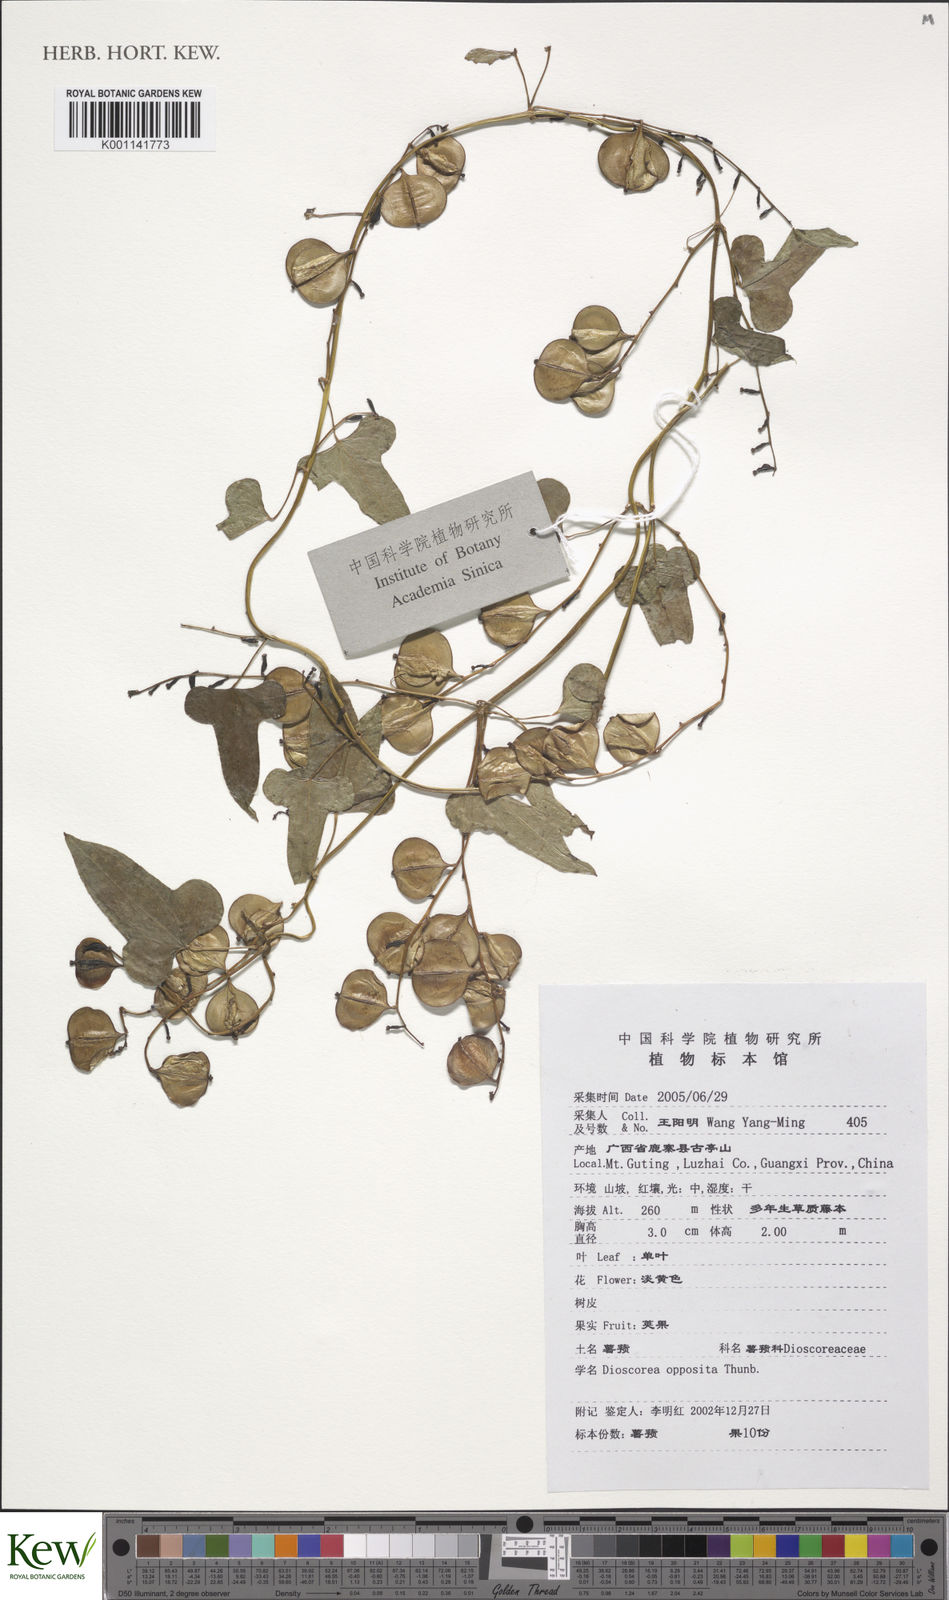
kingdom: Plantae
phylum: Tracheophyta
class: Liliopsida
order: Dioscoreales
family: Dioscoreaceae
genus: Dioscorea
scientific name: Dioscorea oppositifolia
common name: Chinese yam
